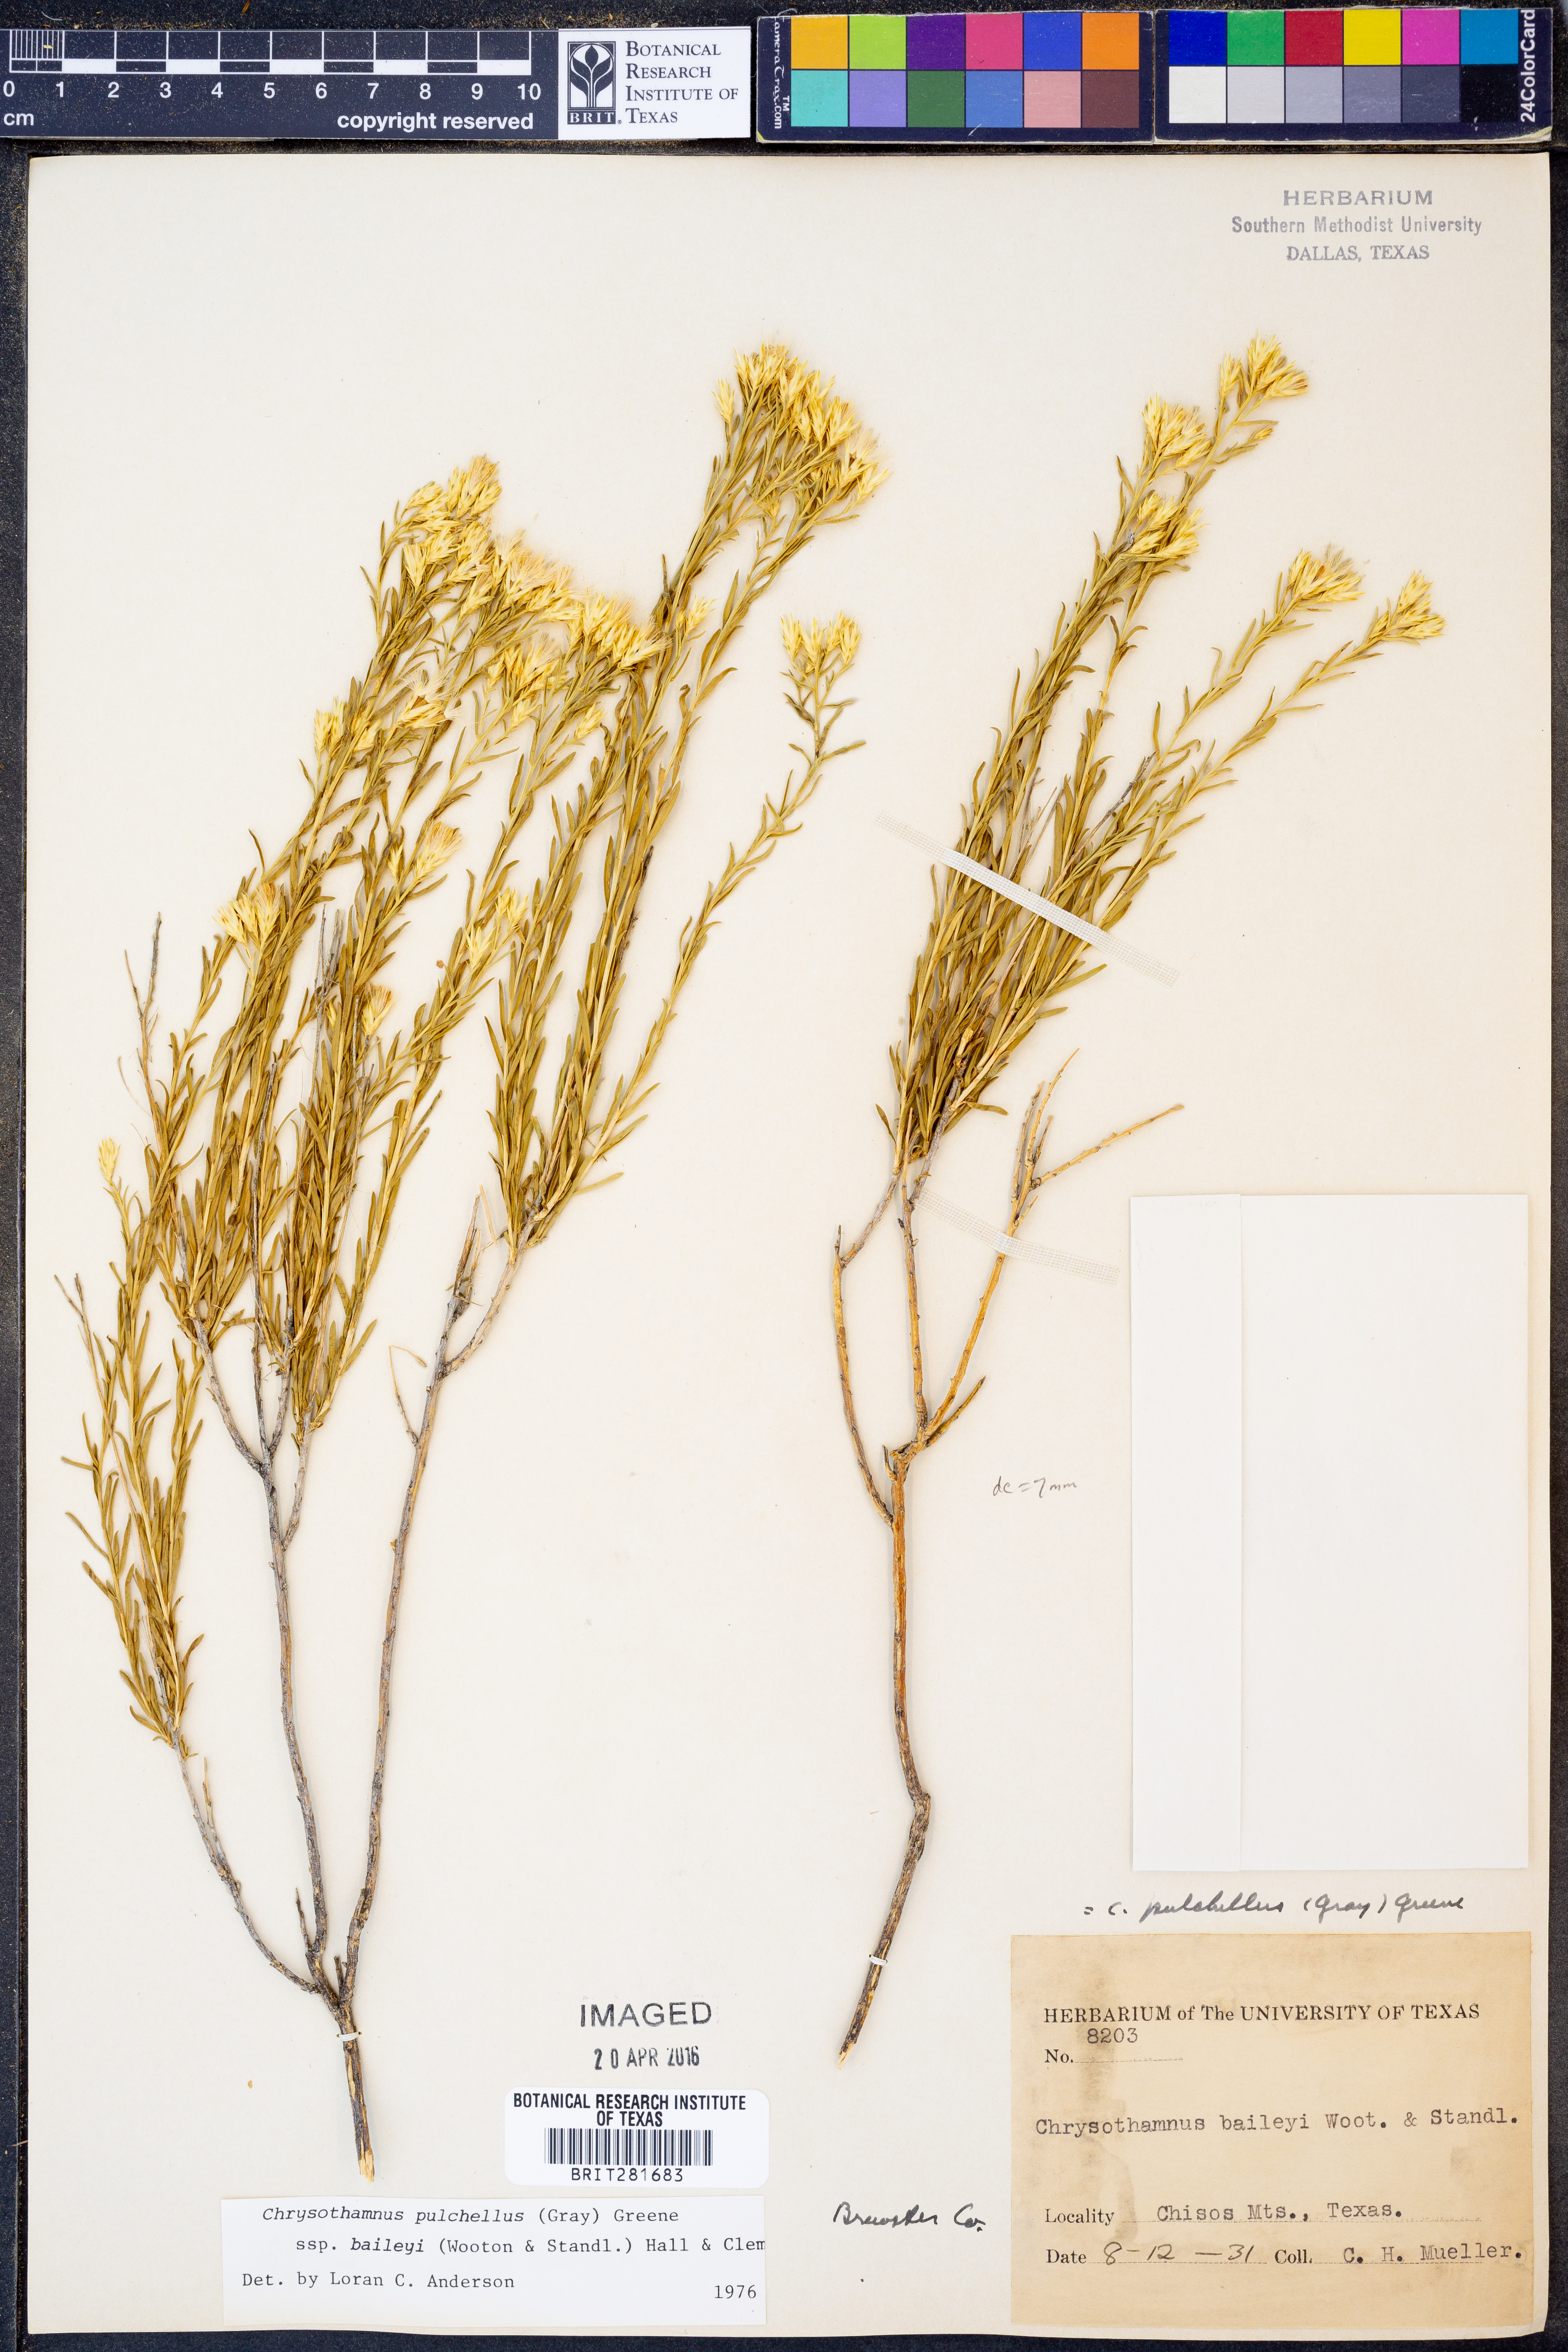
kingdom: Plantae
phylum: Tracheophyta
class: Magnoliopsida
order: Asterales
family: Asteraceae
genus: Lorandersonia
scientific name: Lorandersonia baileyi
